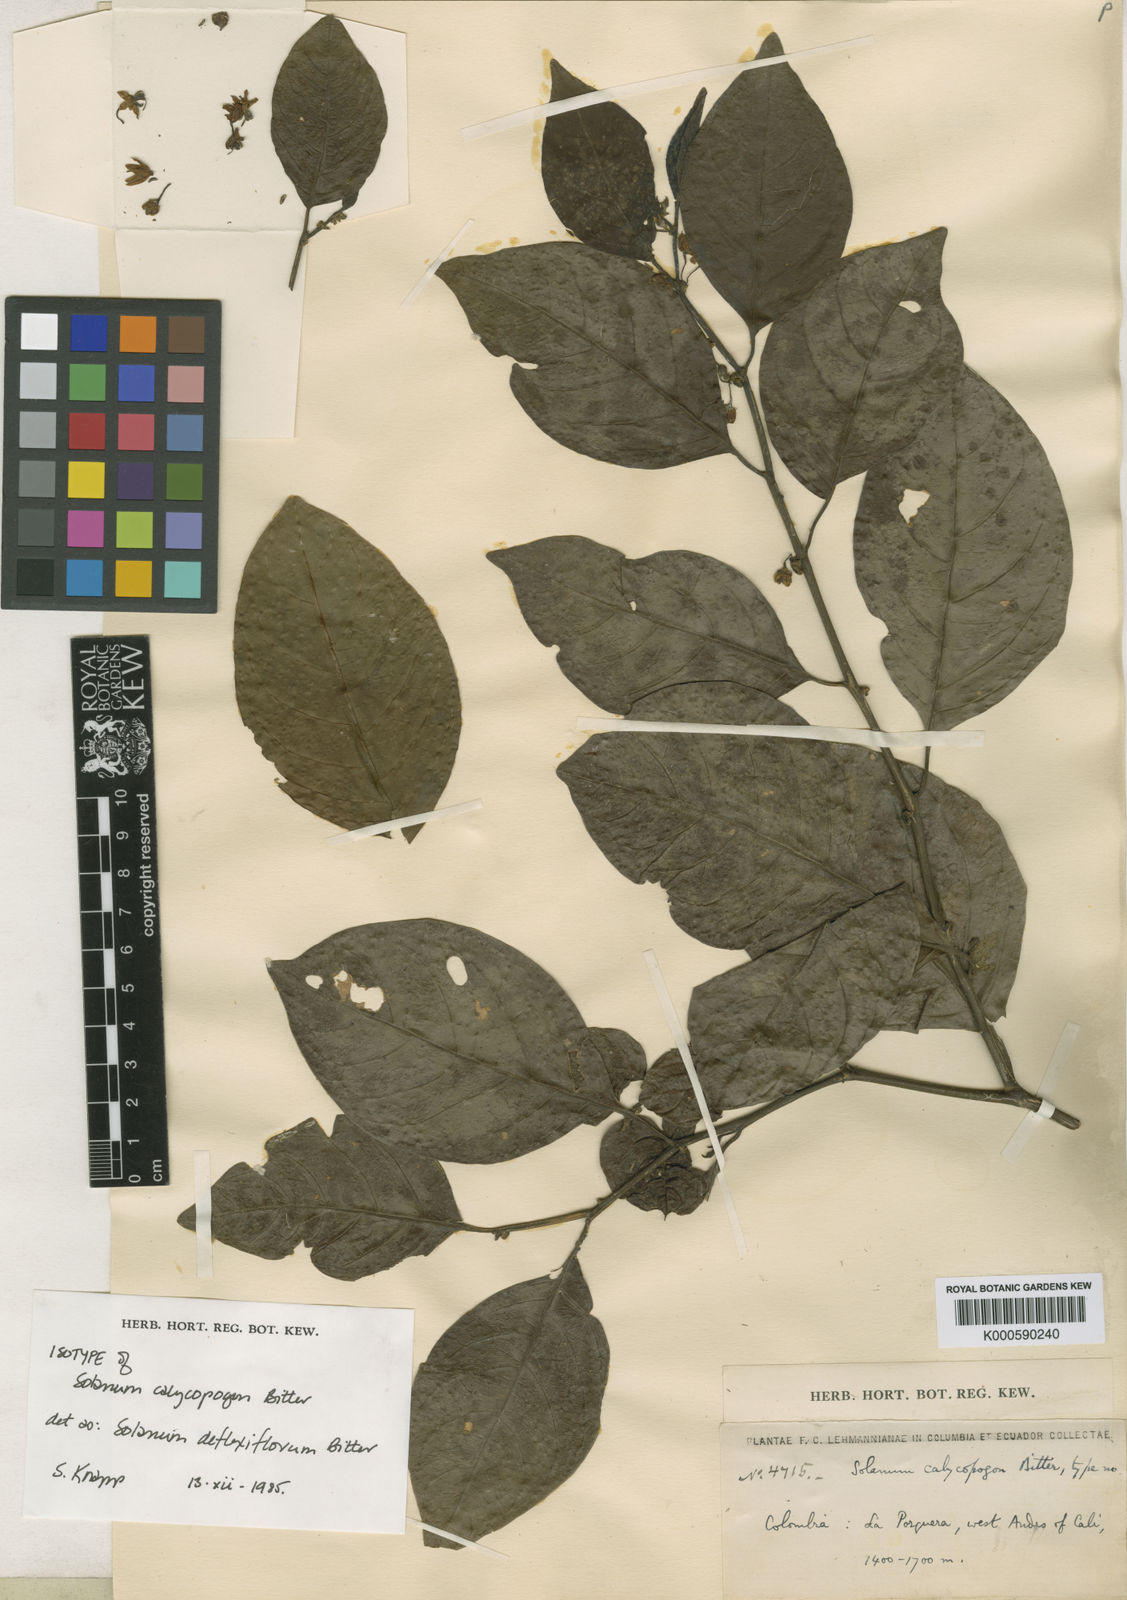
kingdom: Plantae
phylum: Tracheophyta
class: Magnoliopsida
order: Solanales
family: Solanaceae
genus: Solanum
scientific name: Solanum deflexiflorum
